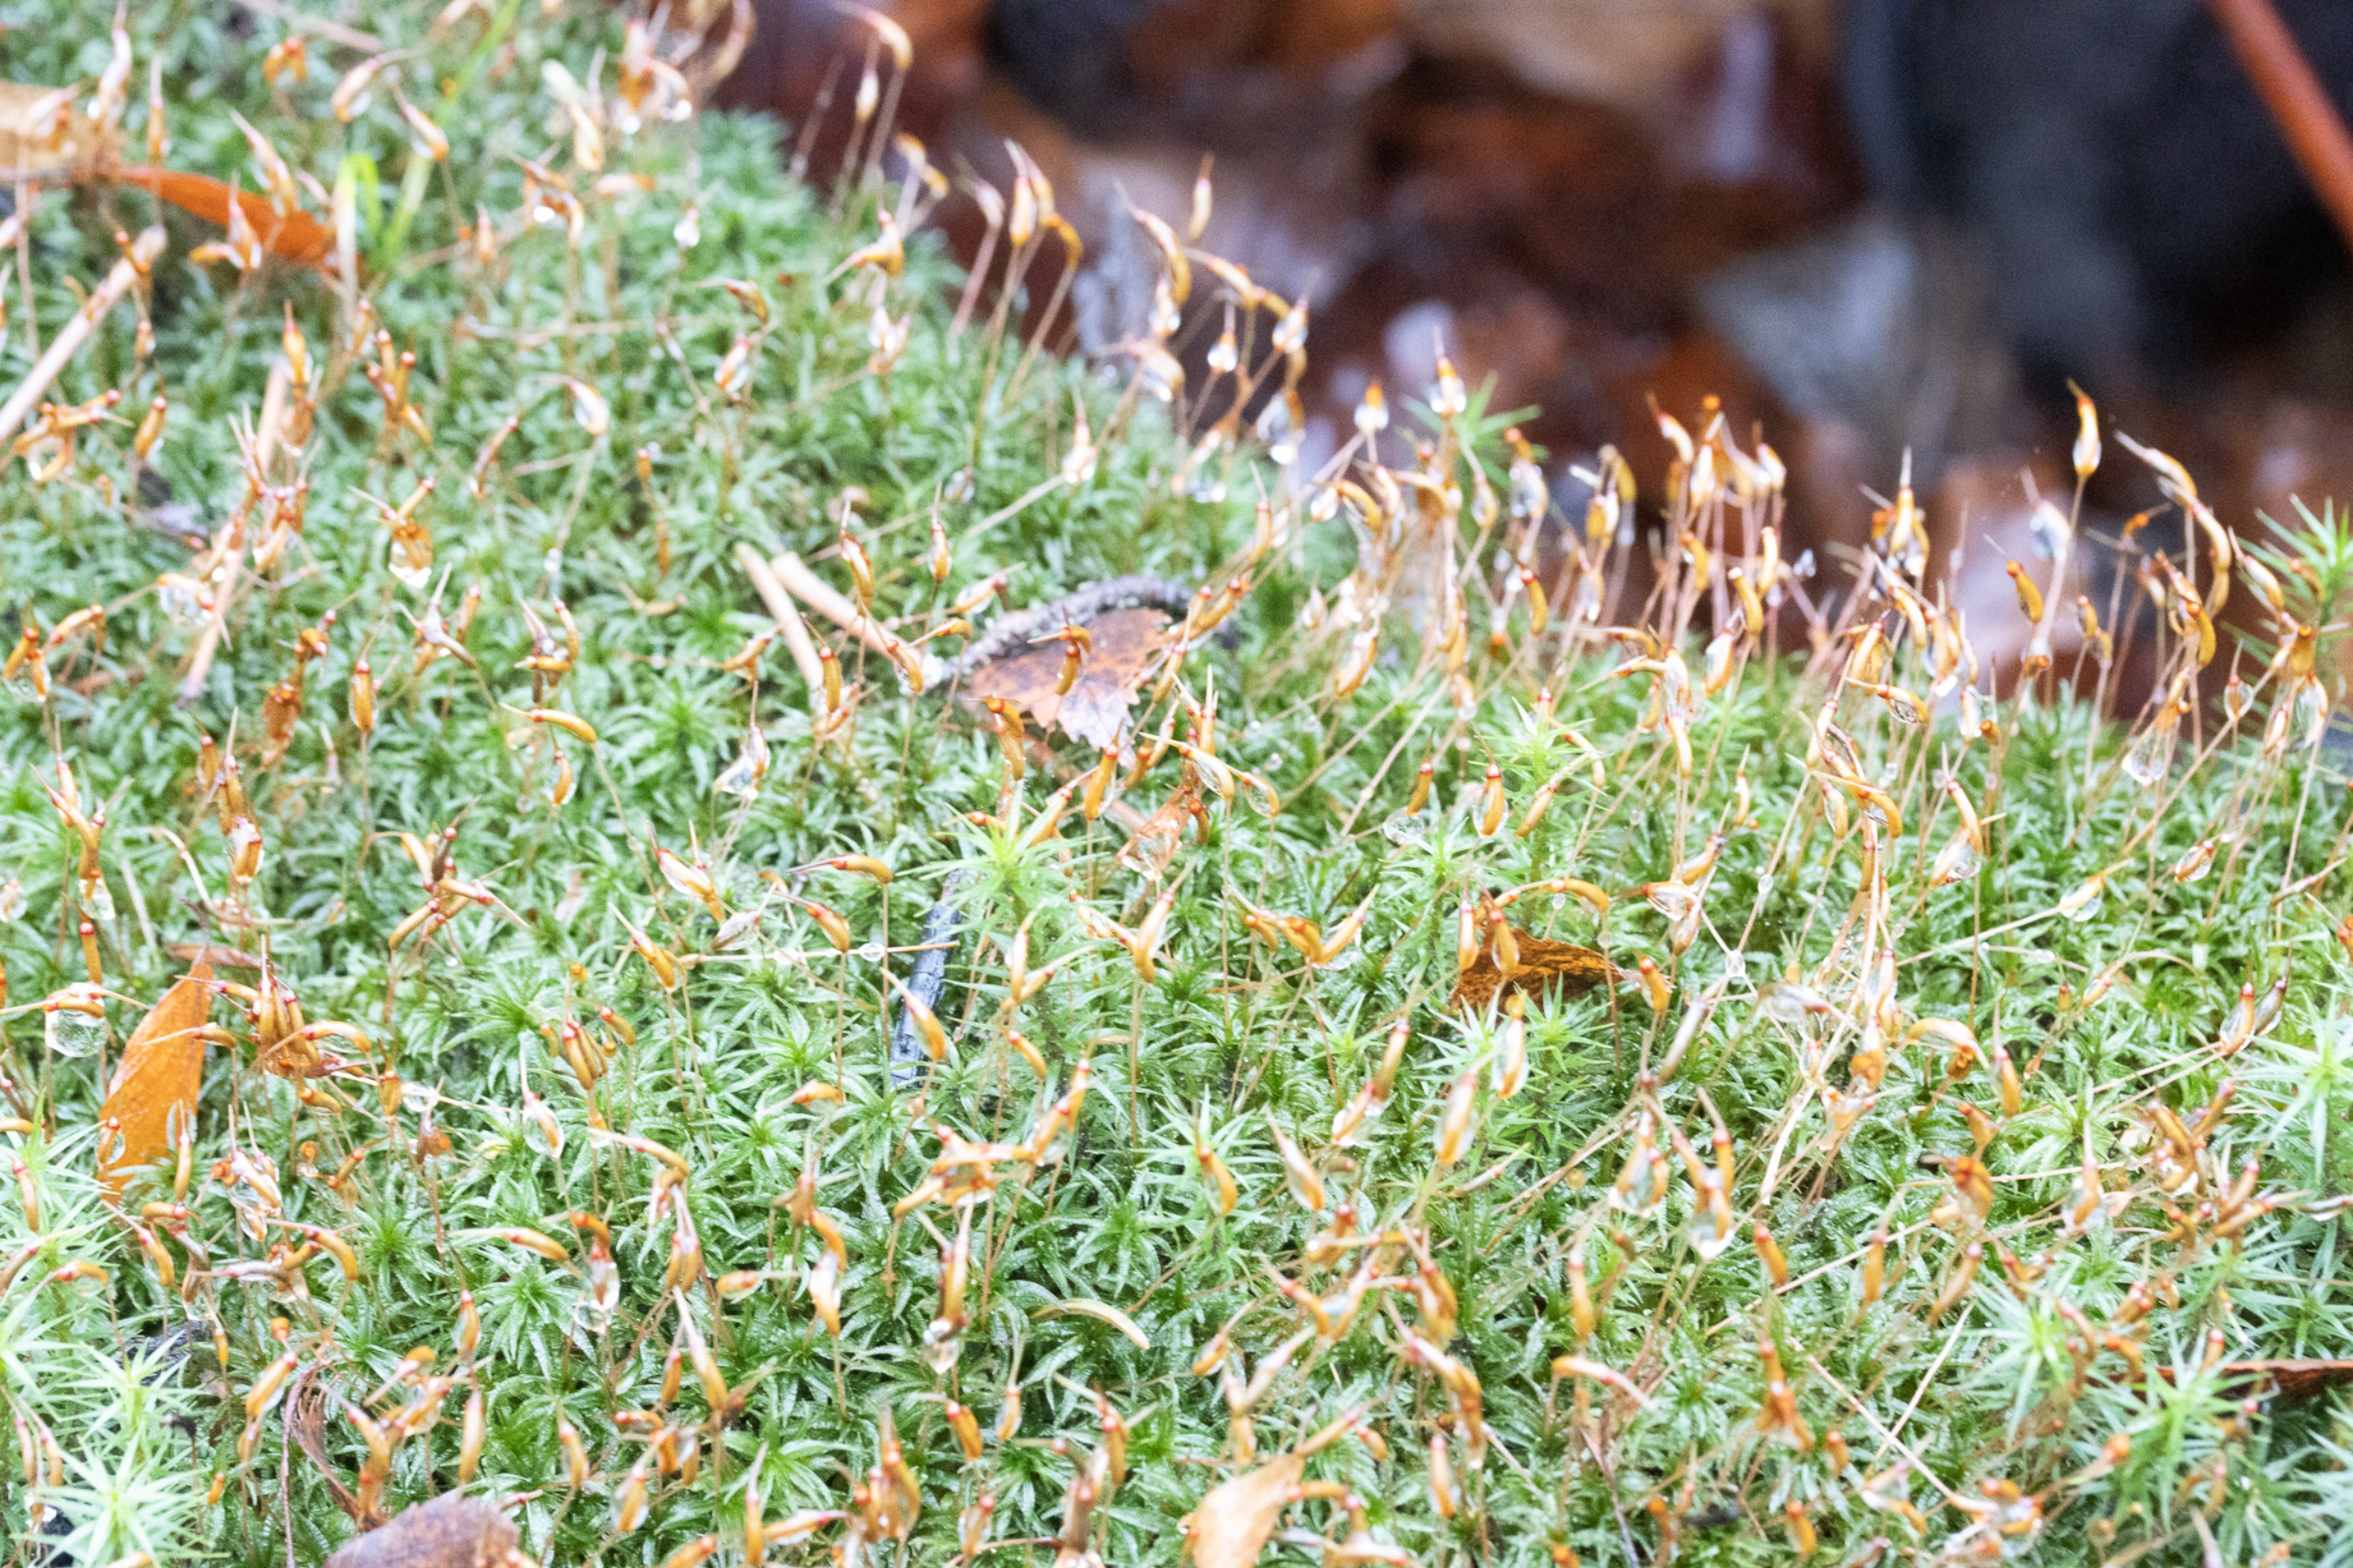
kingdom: Plantae
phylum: Bryophyta
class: Polytrichopsida
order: Polytrichales
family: Polytrichaceae
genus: Atrichum
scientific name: Atrichum undulatum
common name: Bølget katrinemos
